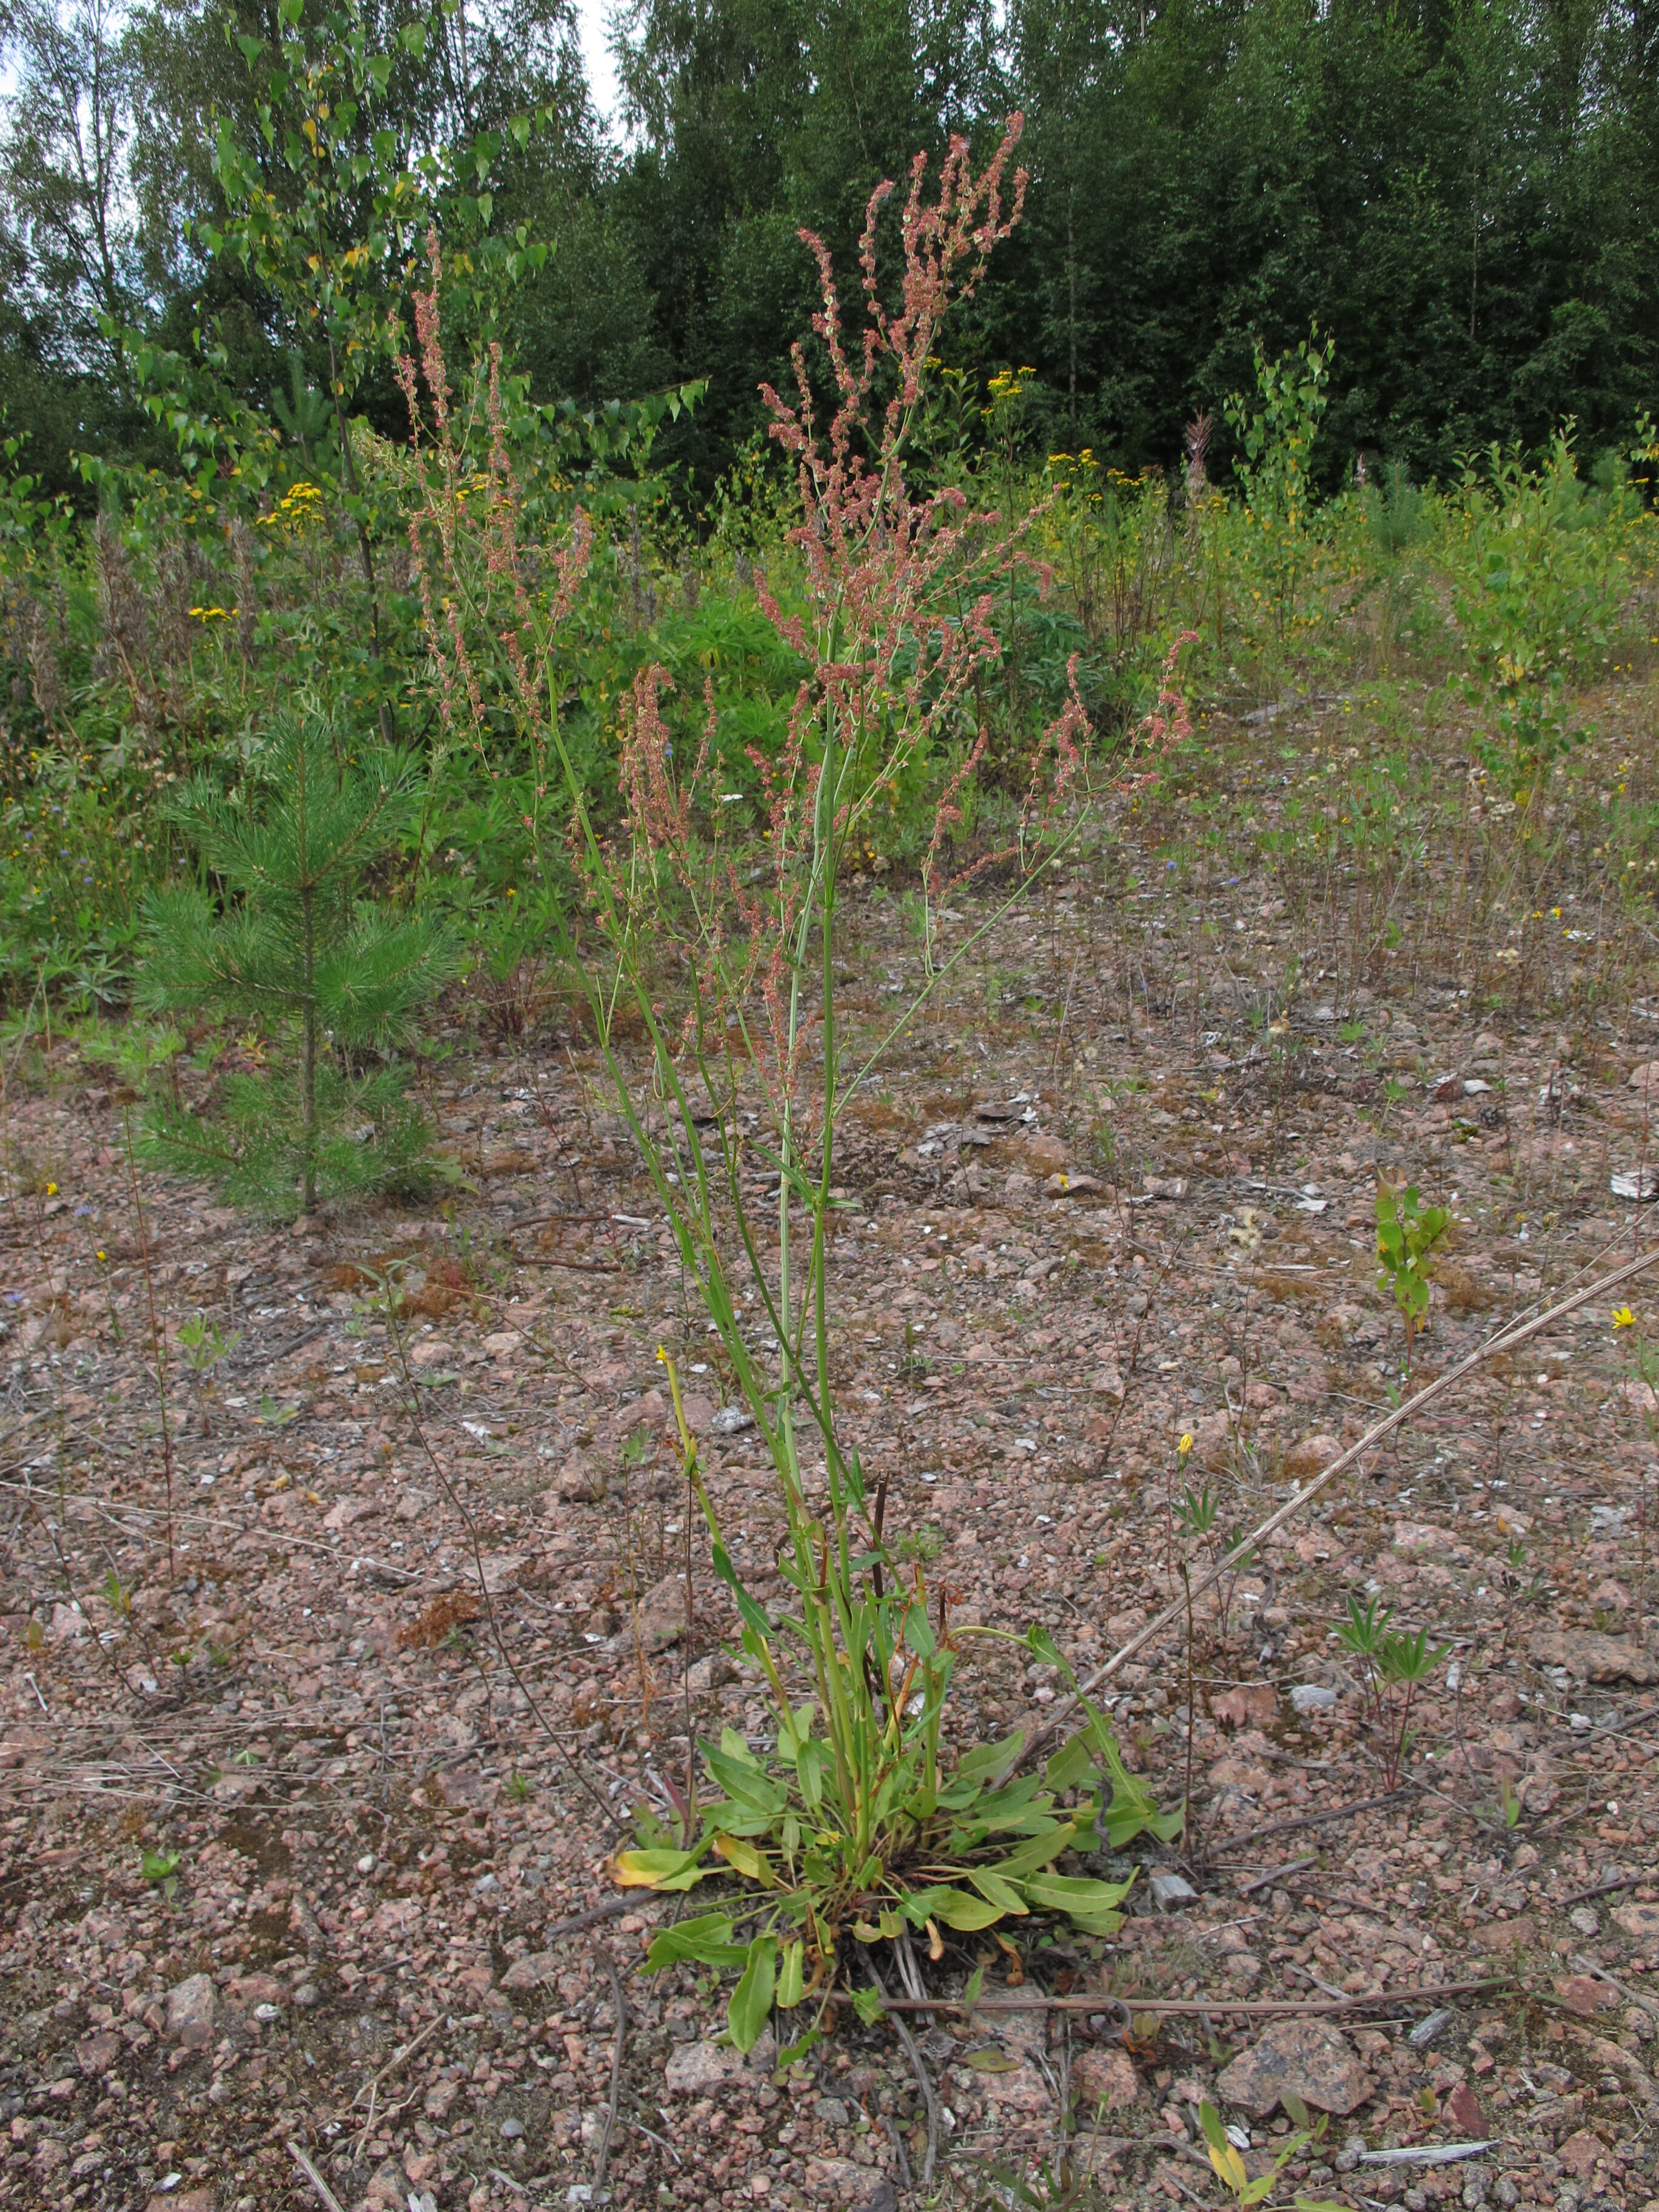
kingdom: Plantae
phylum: Tracheophyta
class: Magnoliopsida
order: Caryophyllales
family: Polygonaceae
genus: Rumex
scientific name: Rumex thyrsiflorus
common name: Garden sorrel
